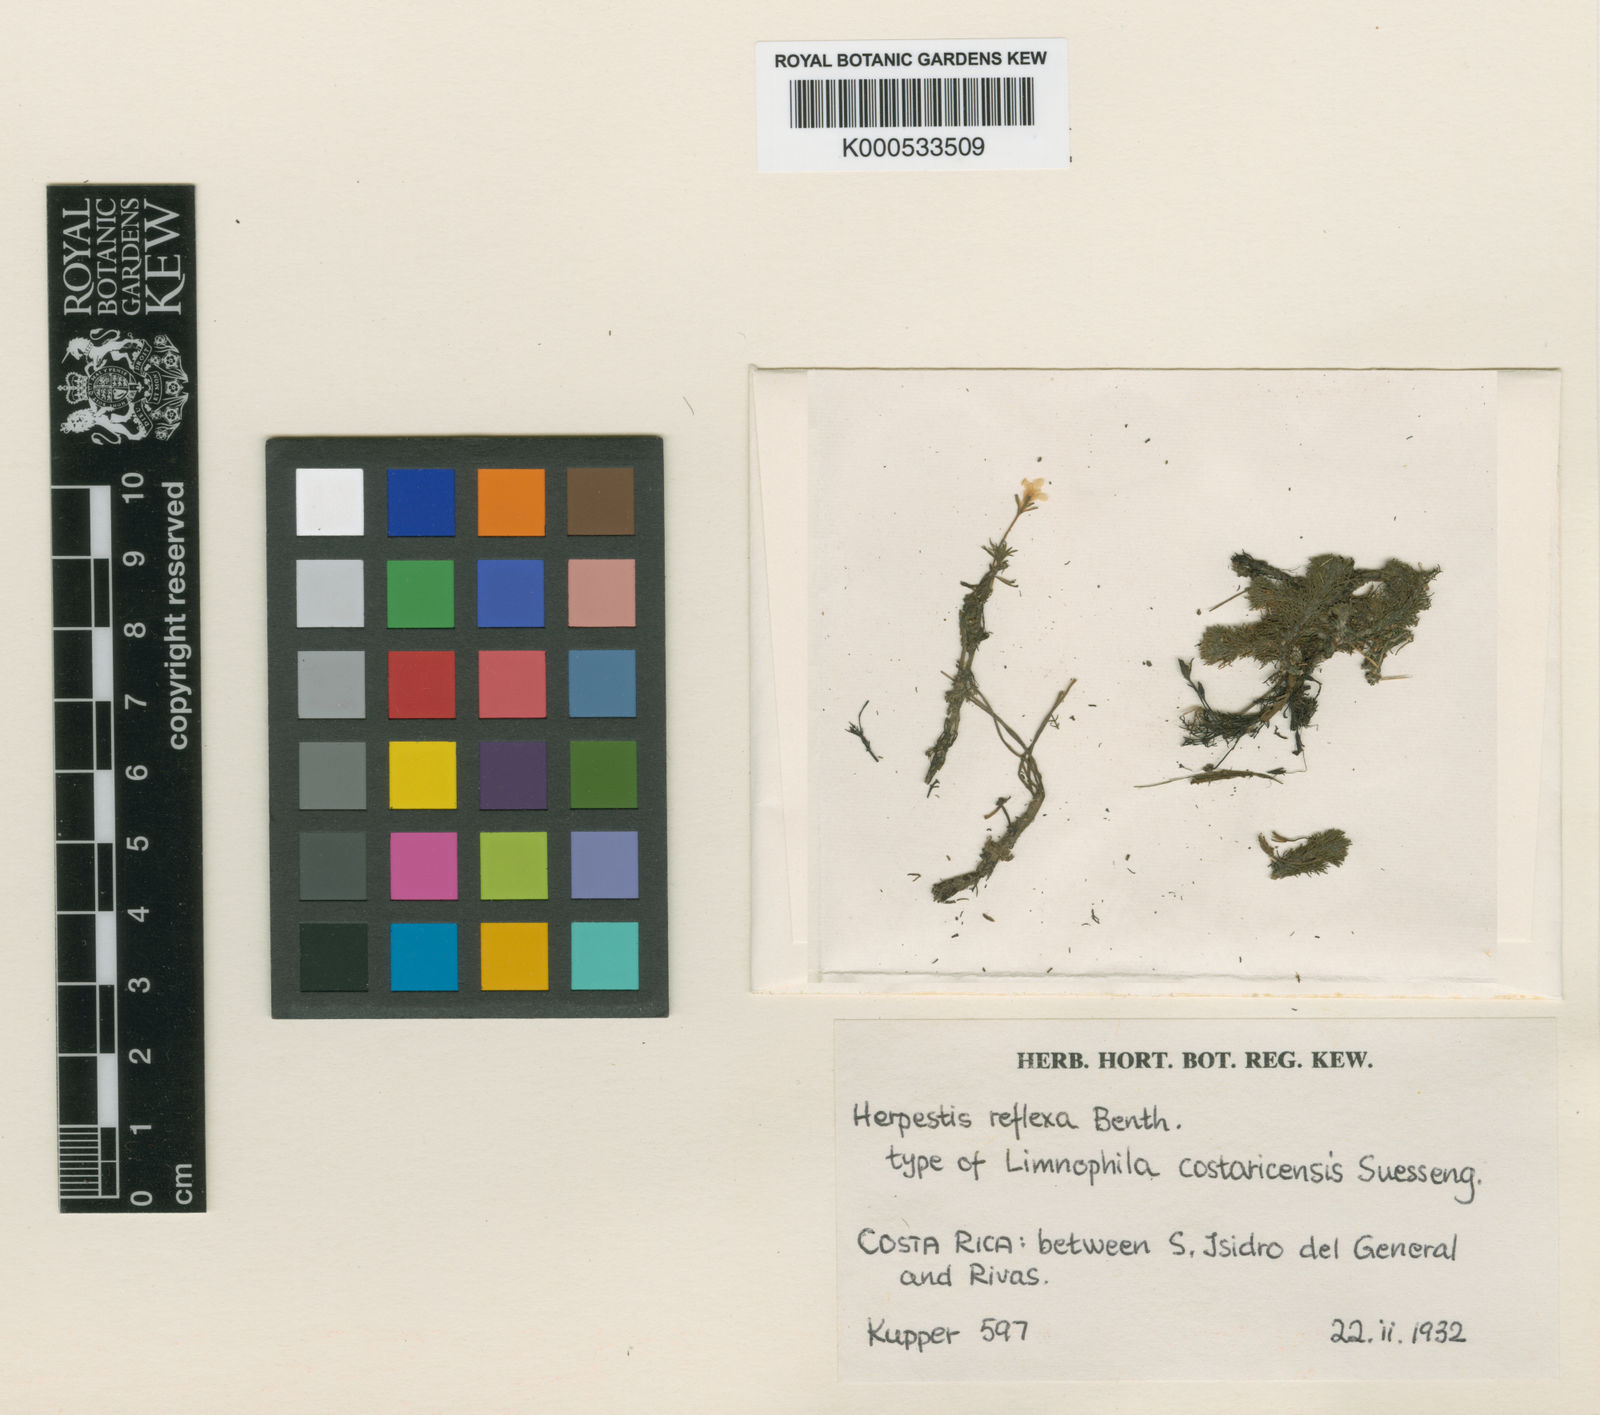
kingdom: Plantae
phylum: Tracheophyta
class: Magnoliopsida
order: Lamiales
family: Plantaginaceae
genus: Bacopa
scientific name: Bacopa reflexa
